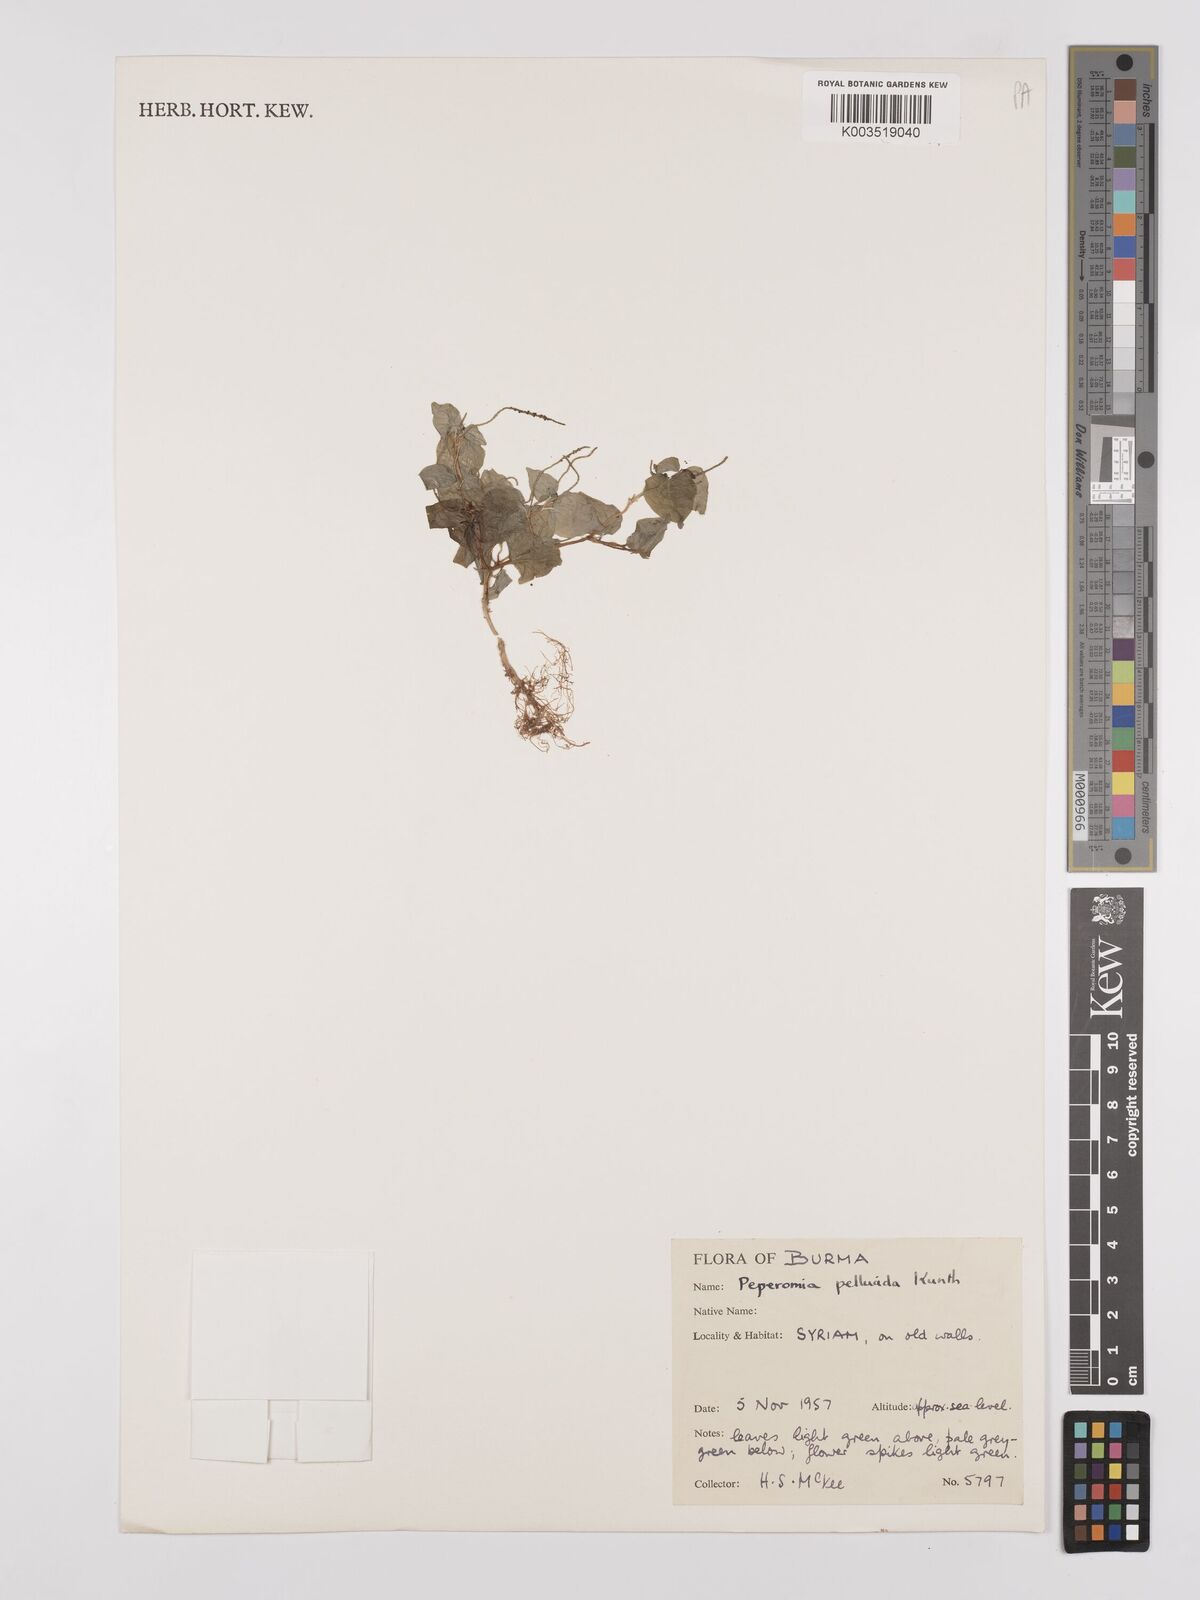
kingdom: Plantae
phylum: Tracheophyta
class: Magnoliopsida
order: Piperales
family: Piperaceae
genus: Peperomia
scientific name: Peperomia pellucida
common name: Man to man
